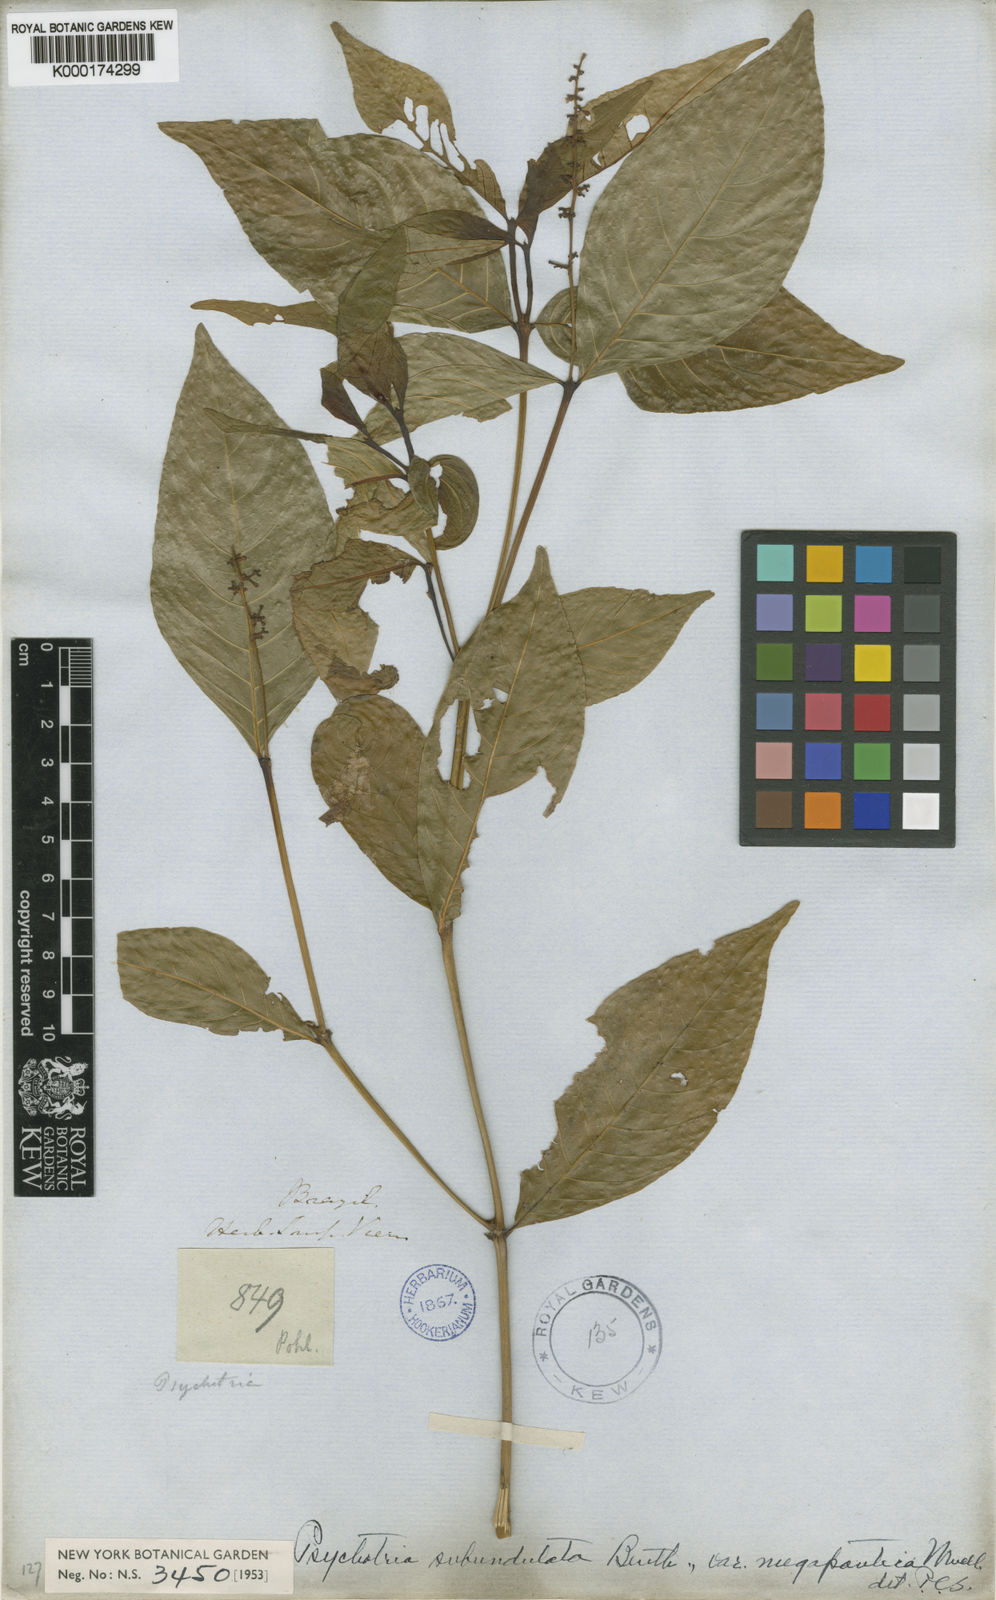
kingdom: Plantae
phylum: Tracheophyta
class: Magnoliopsida
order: Gentianales
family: Rubiaceae
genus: Palicourea
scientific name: Palicourea goyazensis
